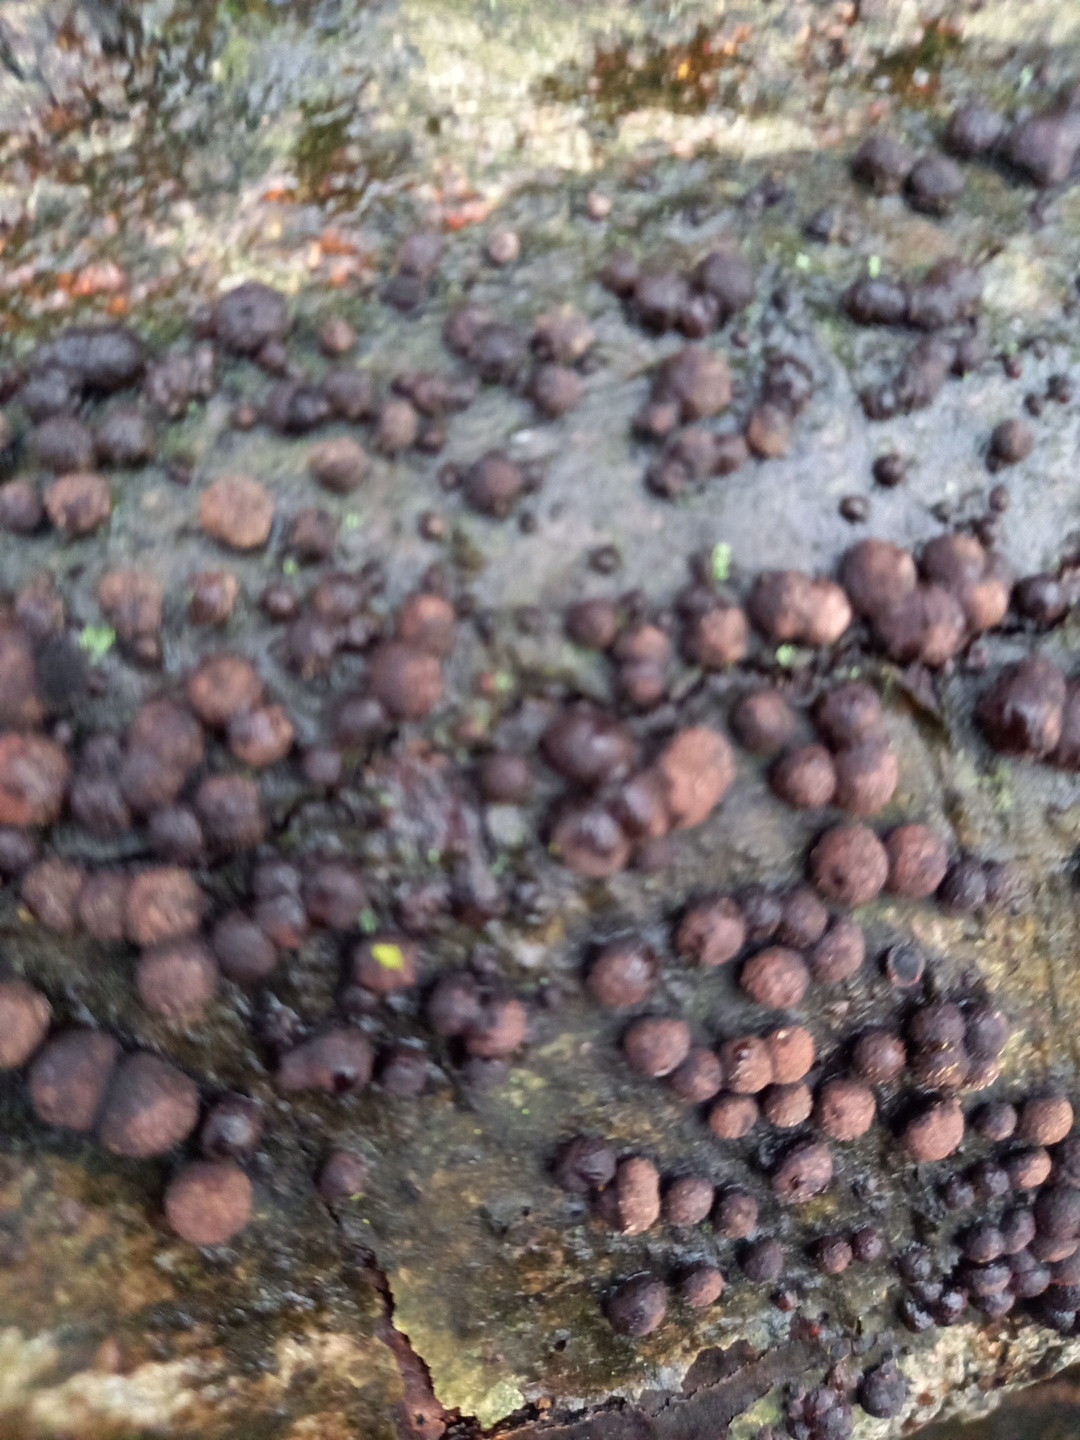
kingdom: Fungi
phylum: Ascomycota
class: Sordariomycetes
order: Xylariales
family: Hypoxylaceae
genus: Hypoxylon
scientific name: Hypoxylon fragiforme
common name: kuljordbær
